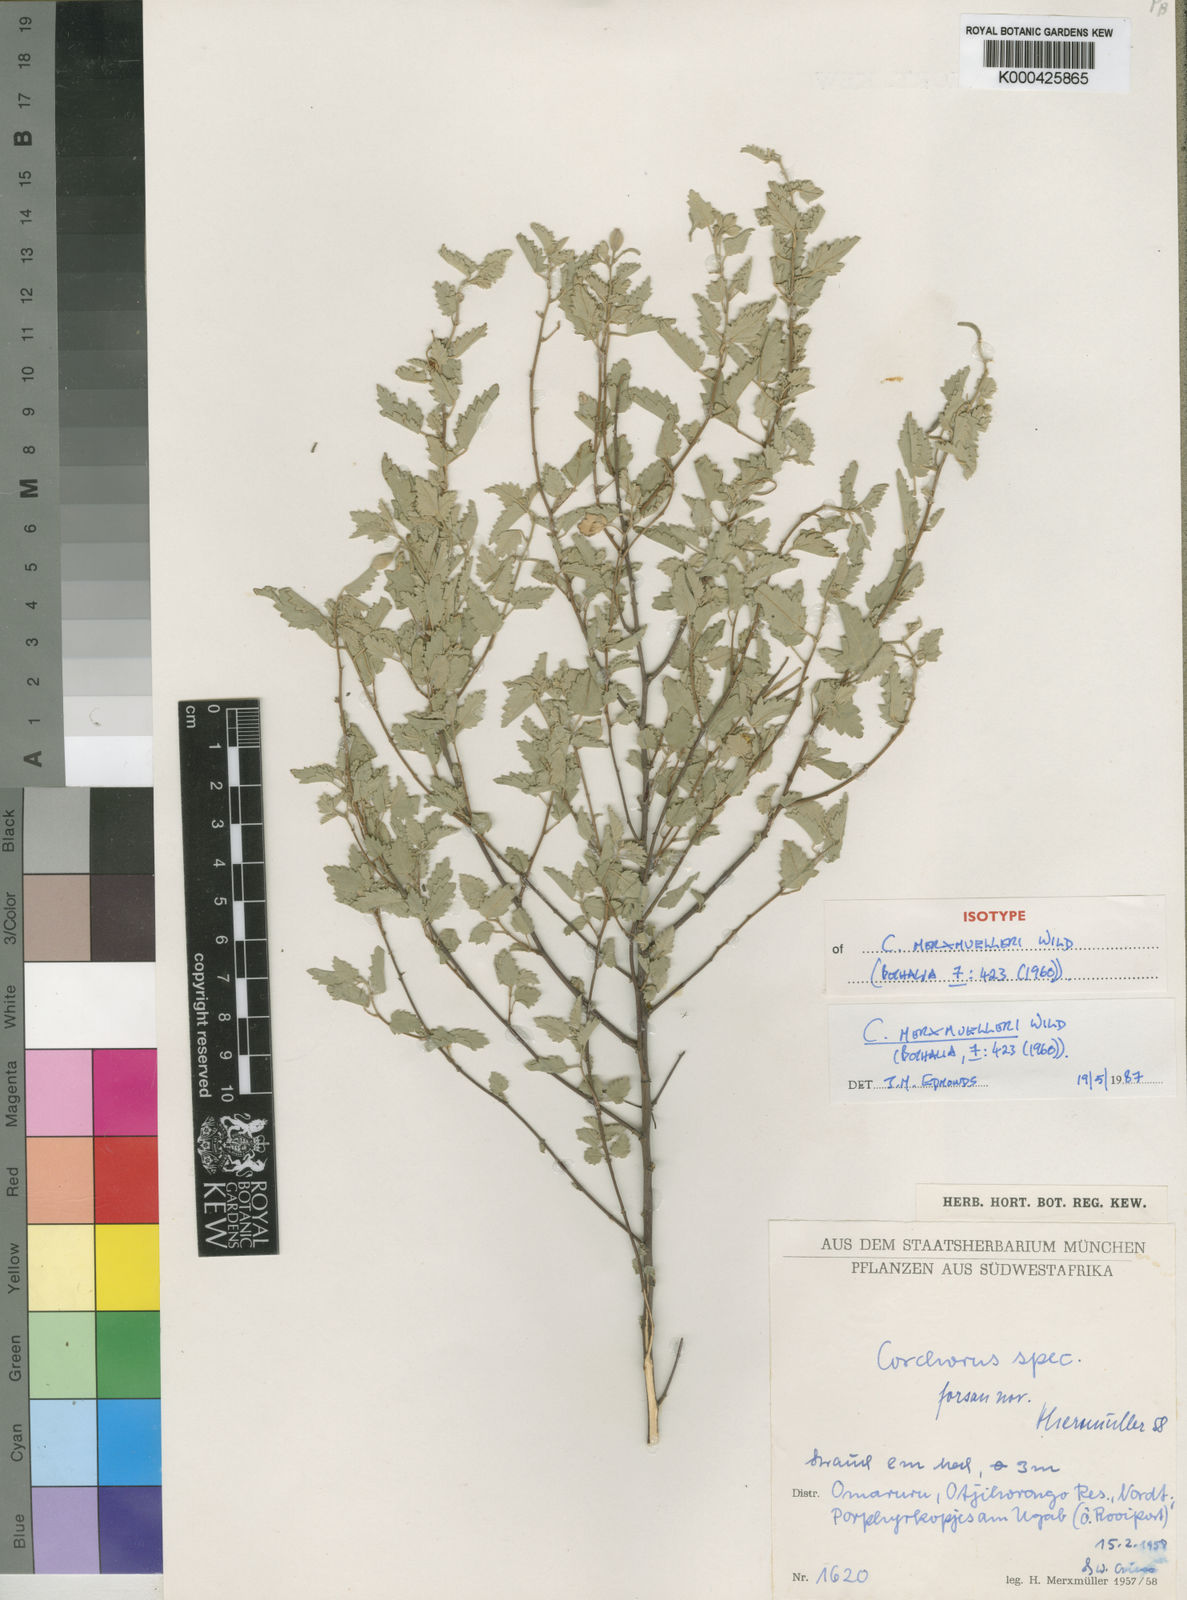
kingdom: Plantae
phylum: Tracheophyta
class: Magnoliopsida
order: Malvales
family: Malvaceae
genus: Corchorus
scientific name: Corchorus merxmuelleri
